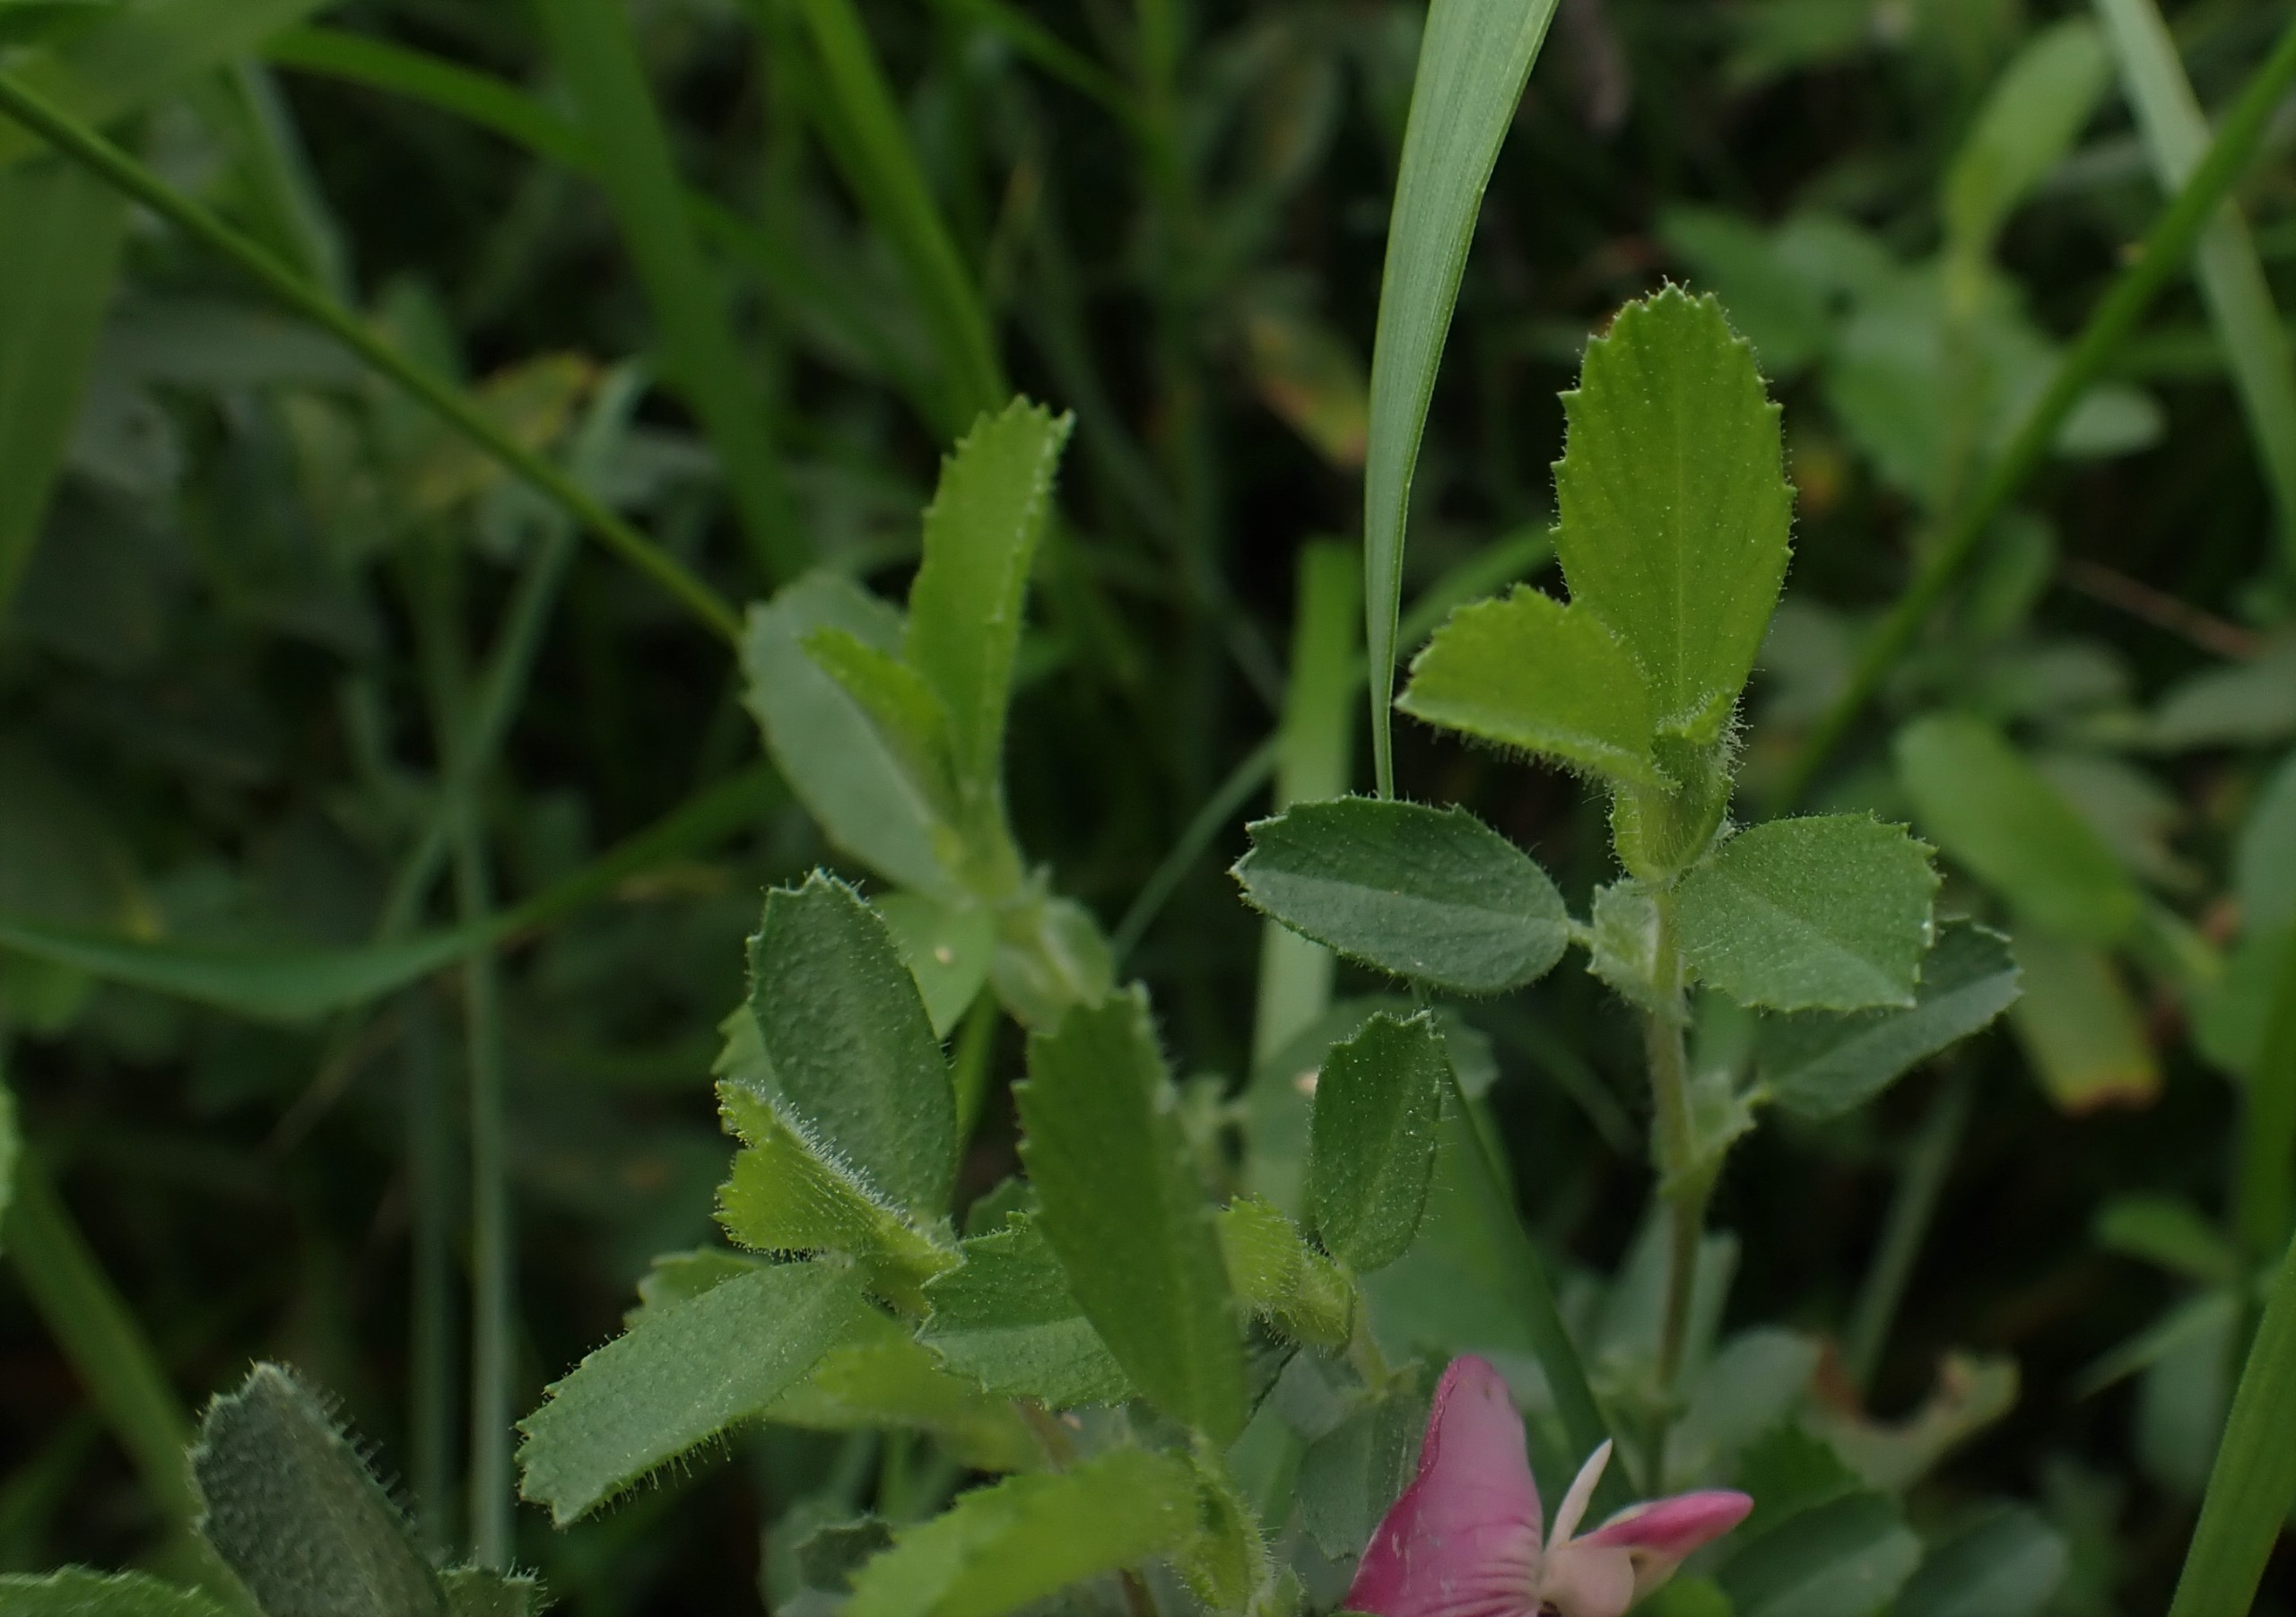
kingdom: Plantae
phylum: Tracheophyta
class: Magnoliopsida
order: Fabales
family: Fabaceae
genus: Ononis
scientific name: Ononis spinosa
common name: Mark-krageklo
